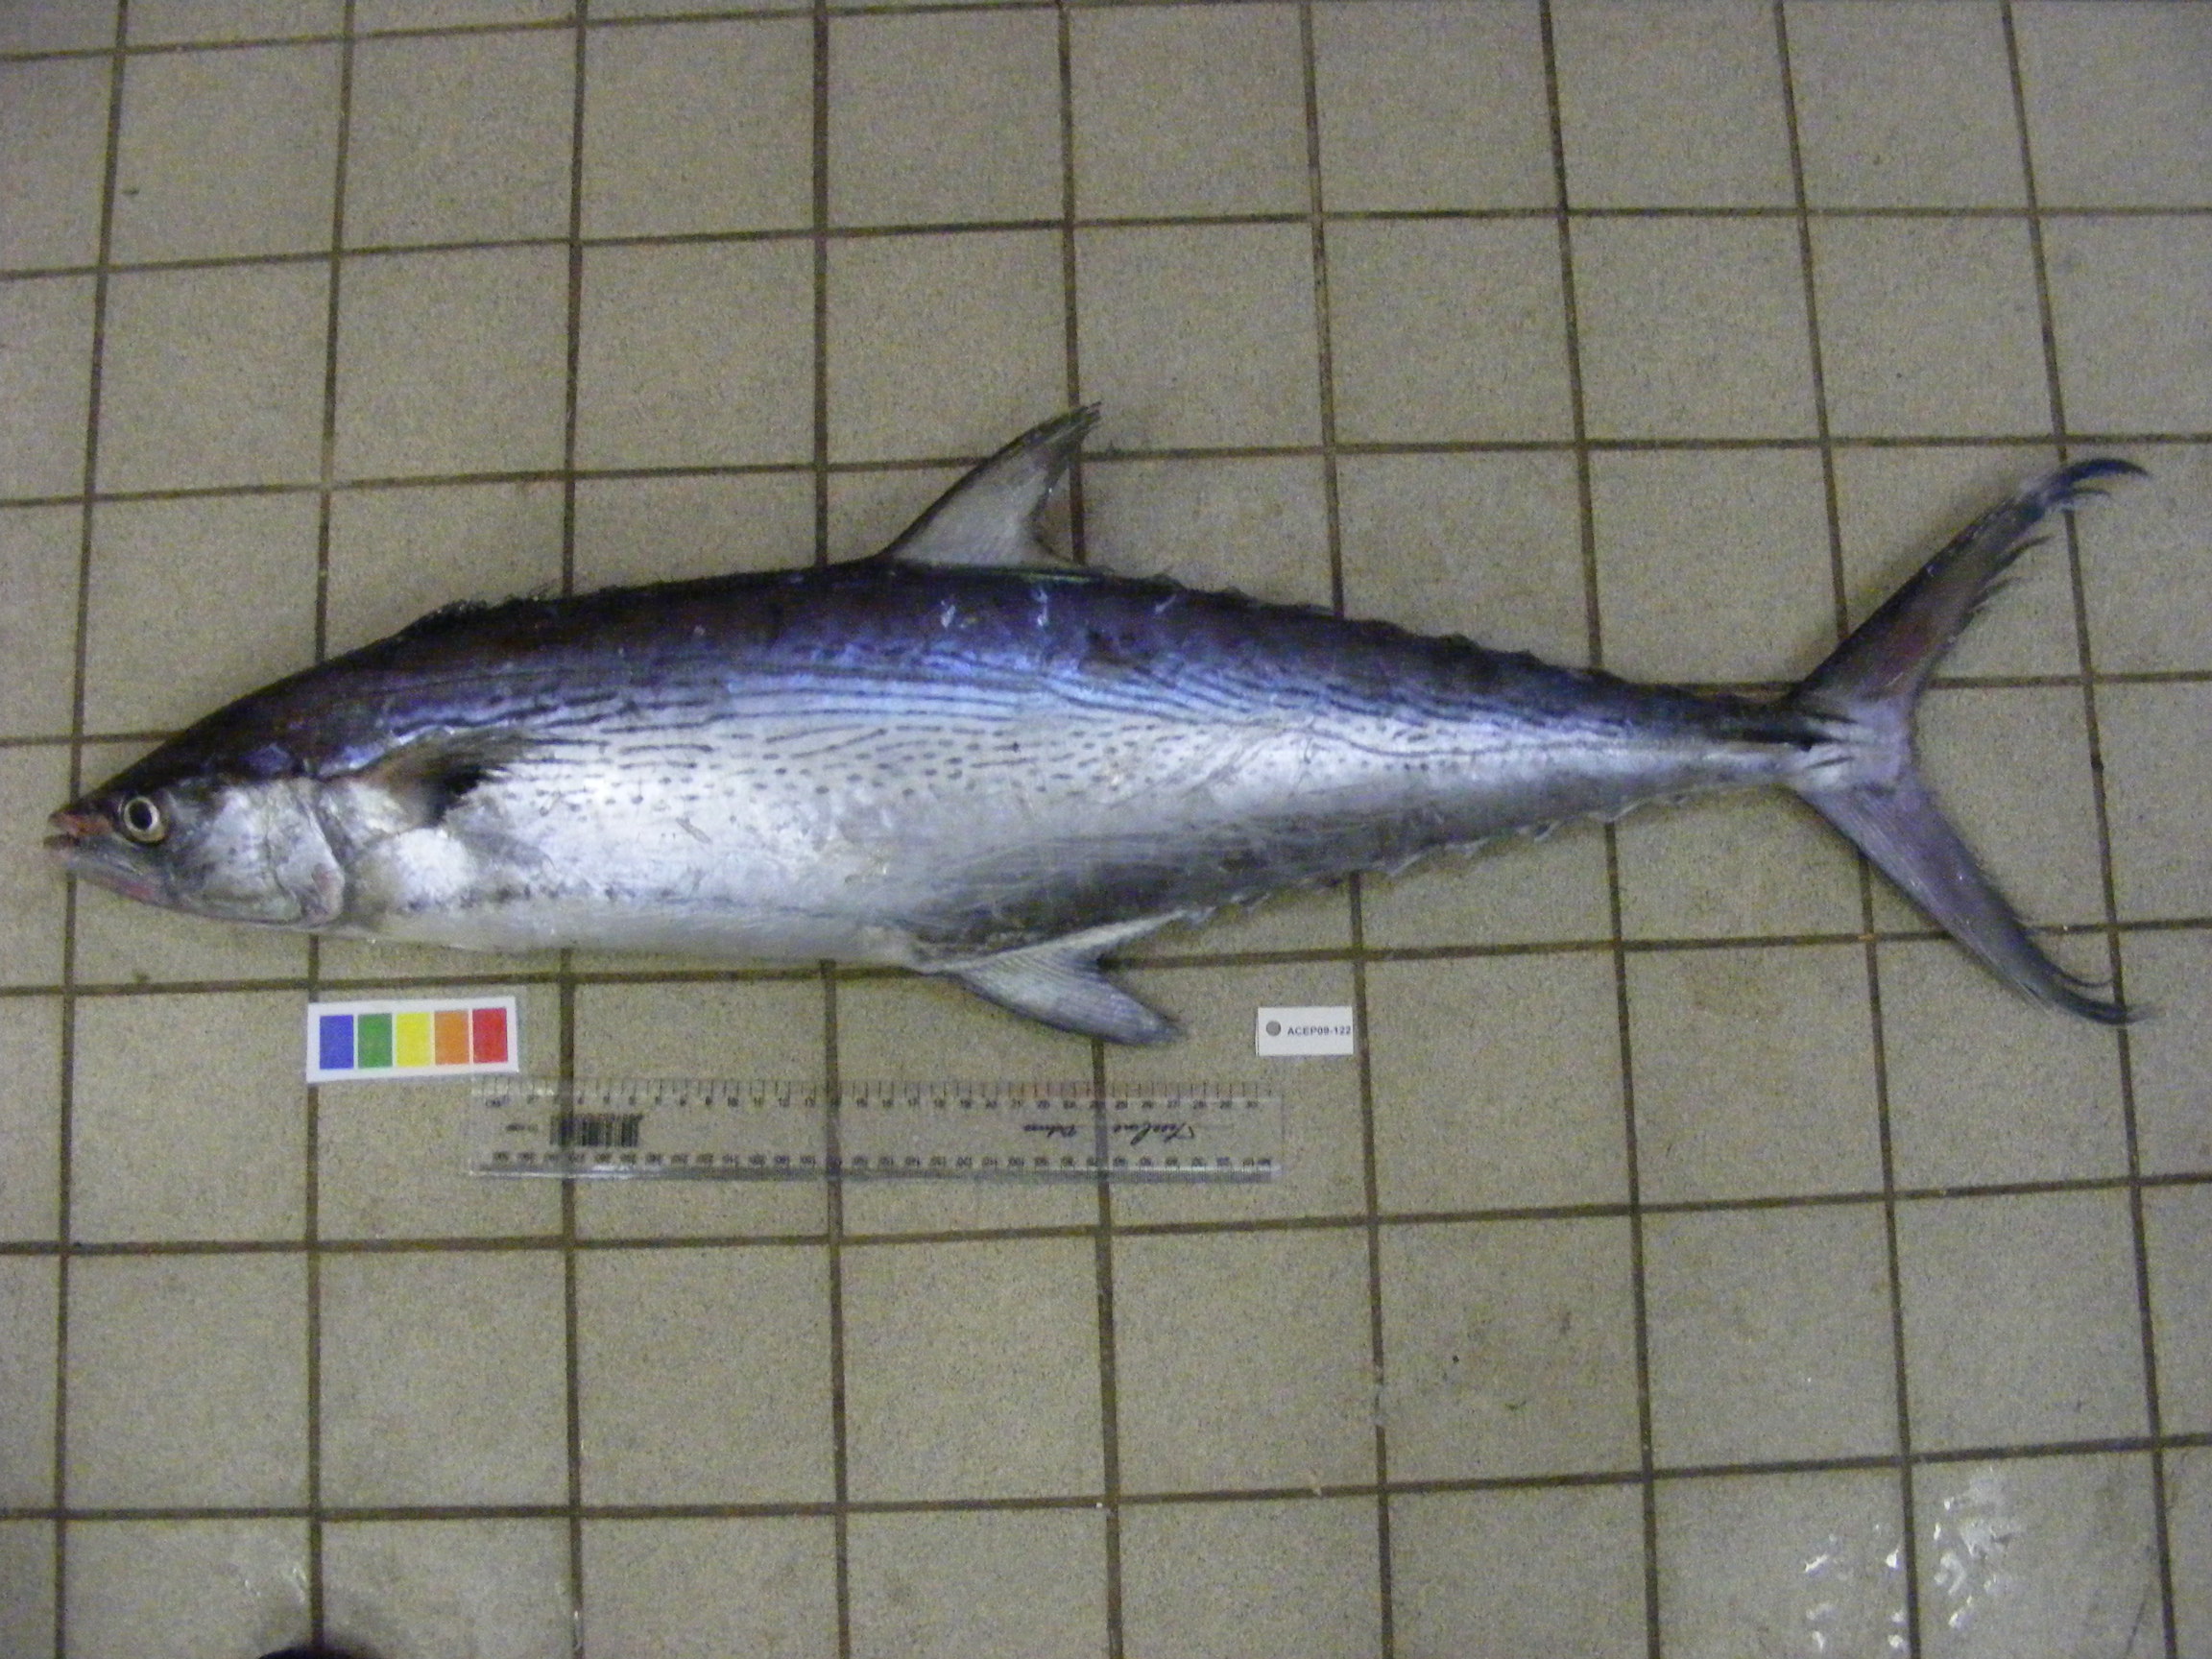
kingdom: Animalia
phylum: Chordata
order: Perciformes
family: Scombridae
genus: Scomberomorus
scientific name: Scomberomorus plurilineatus
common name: Queen mackerel
